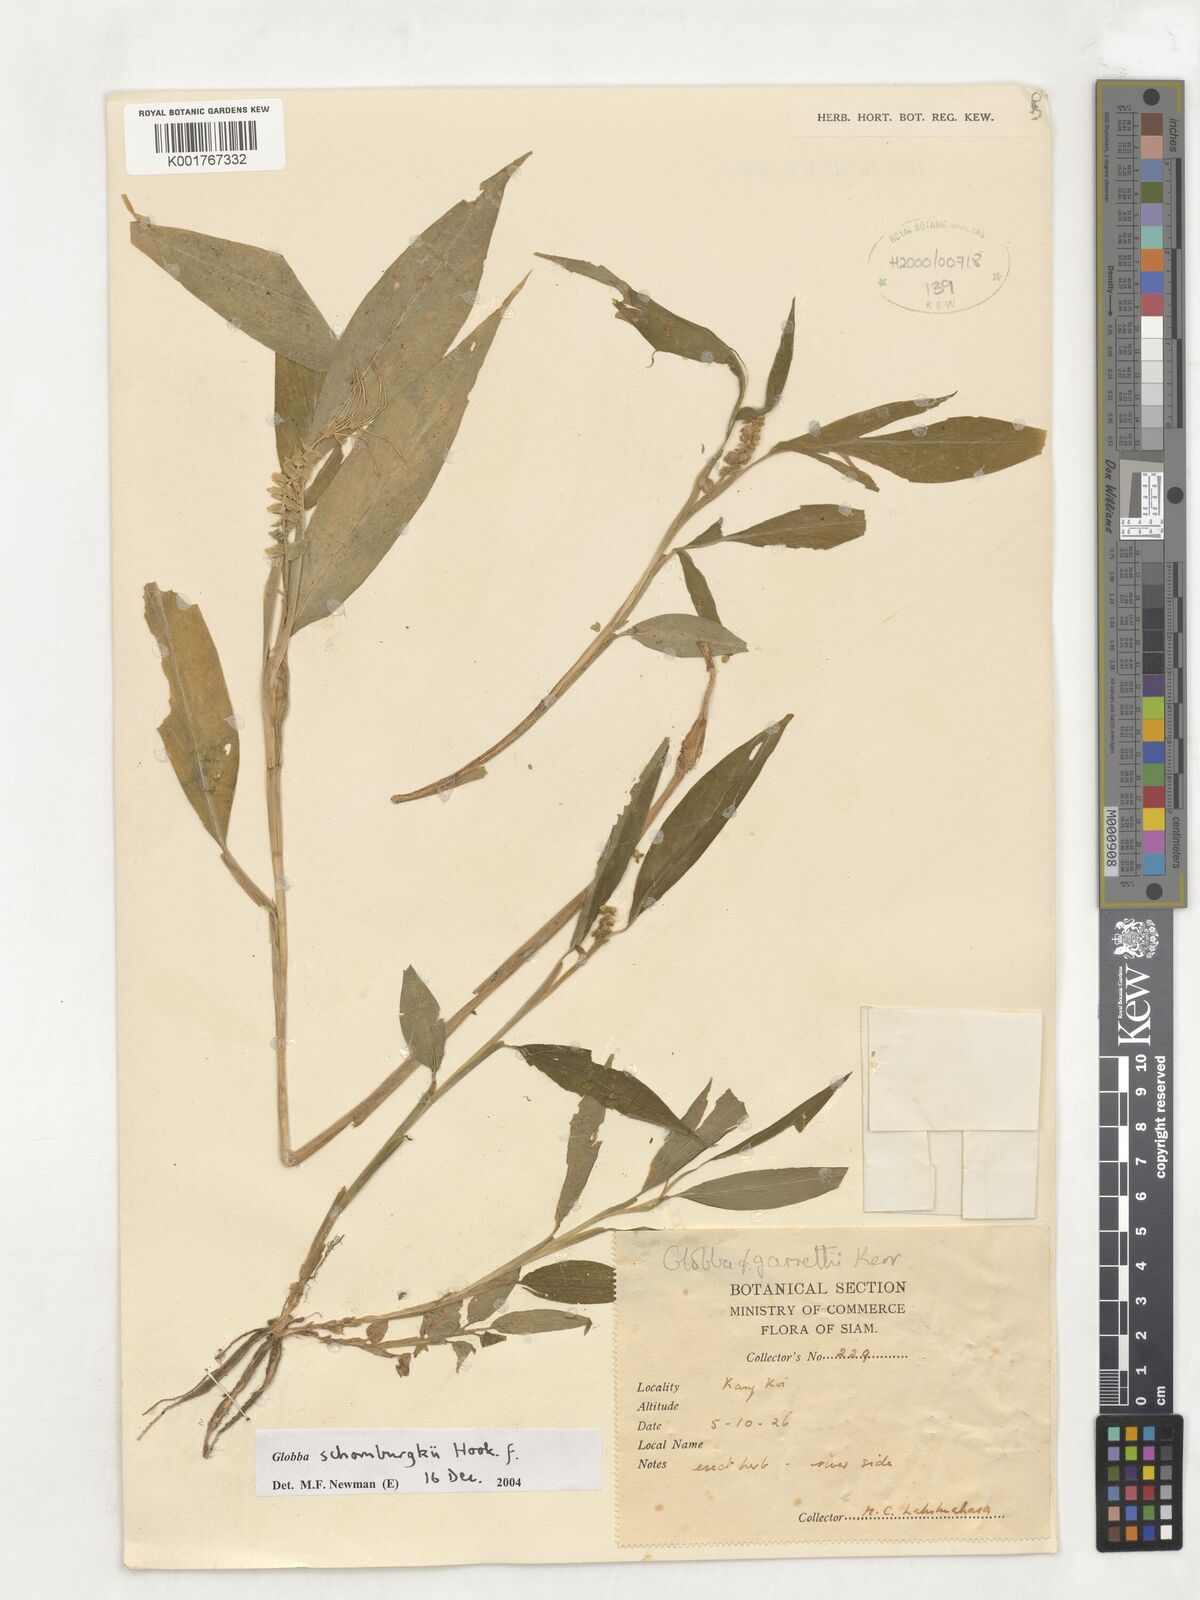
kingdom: Plantae
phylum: Tracheophyta
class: Liliopsida
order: Zingiberales
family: Zingiberaceae
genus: Globba
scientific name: Globba schomburgkii
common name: Dancing girl ginger
